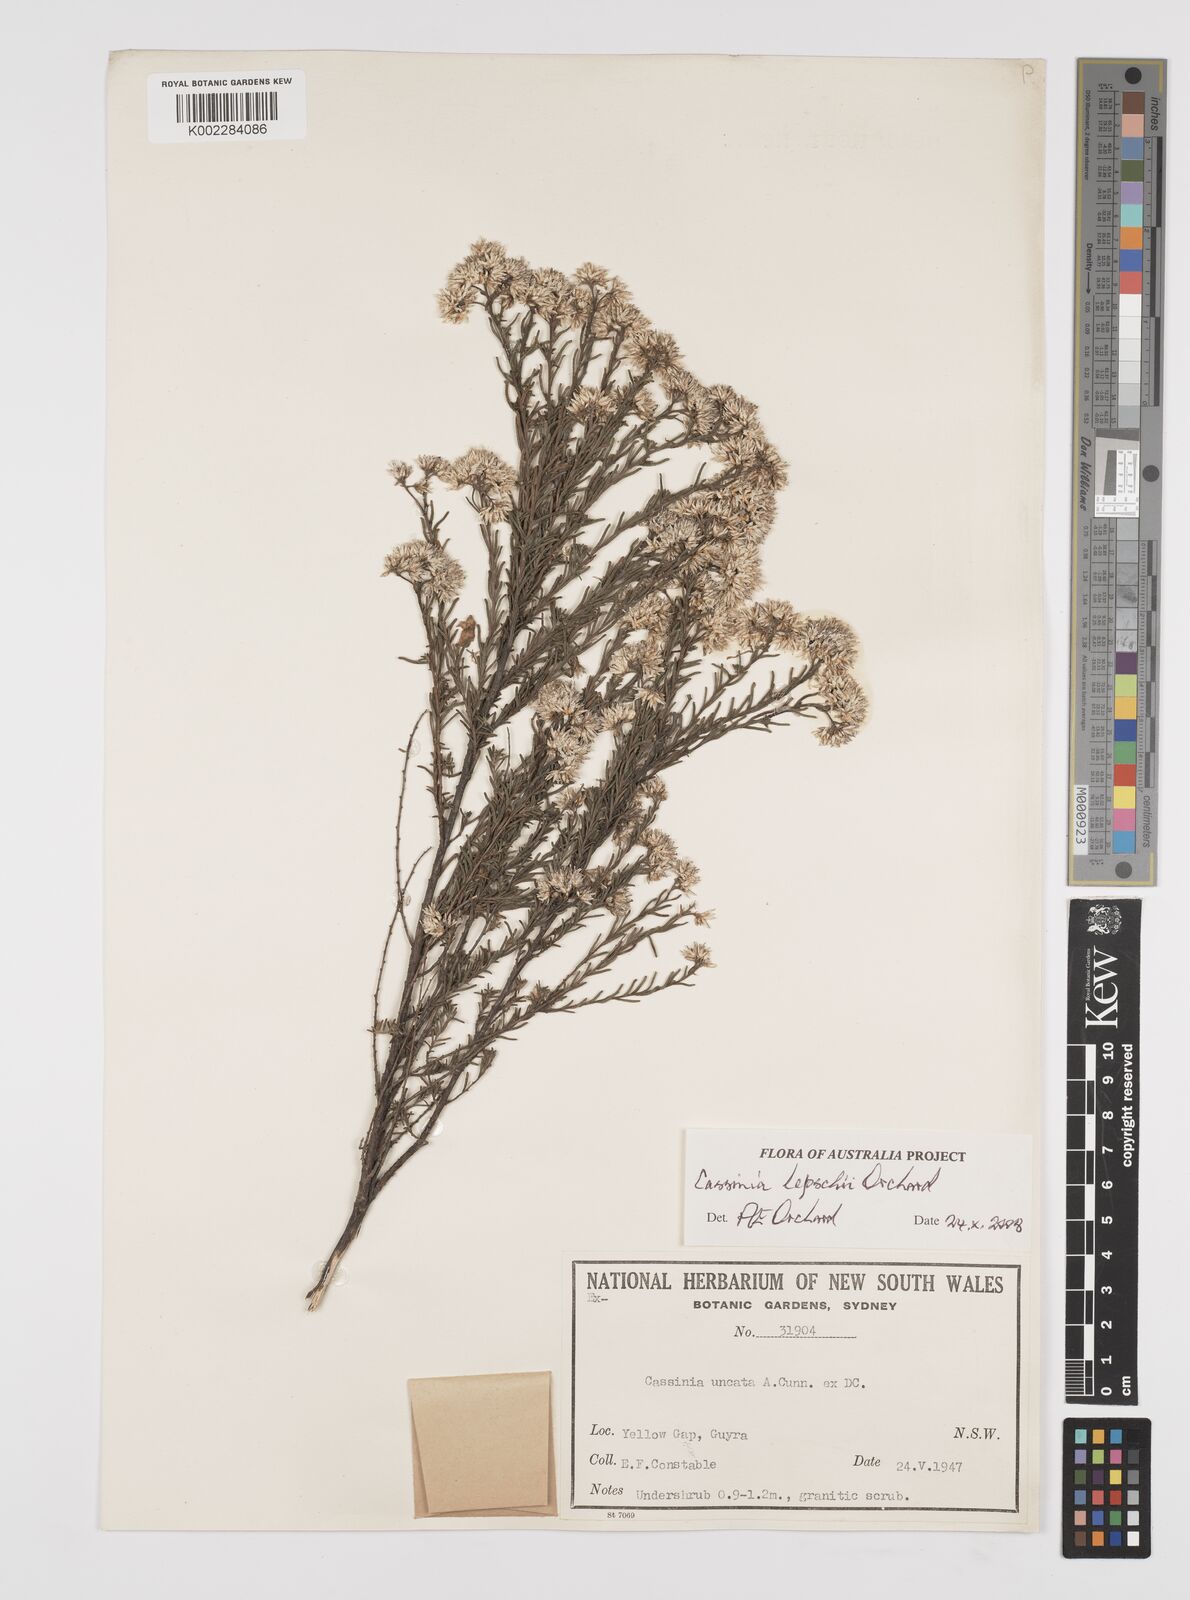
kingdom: Plantae
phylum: Tracheophyta
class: Magnoliopsida
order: Asterales
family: Asteraceae
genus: Cassinia
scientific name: Cassinia lepschii
